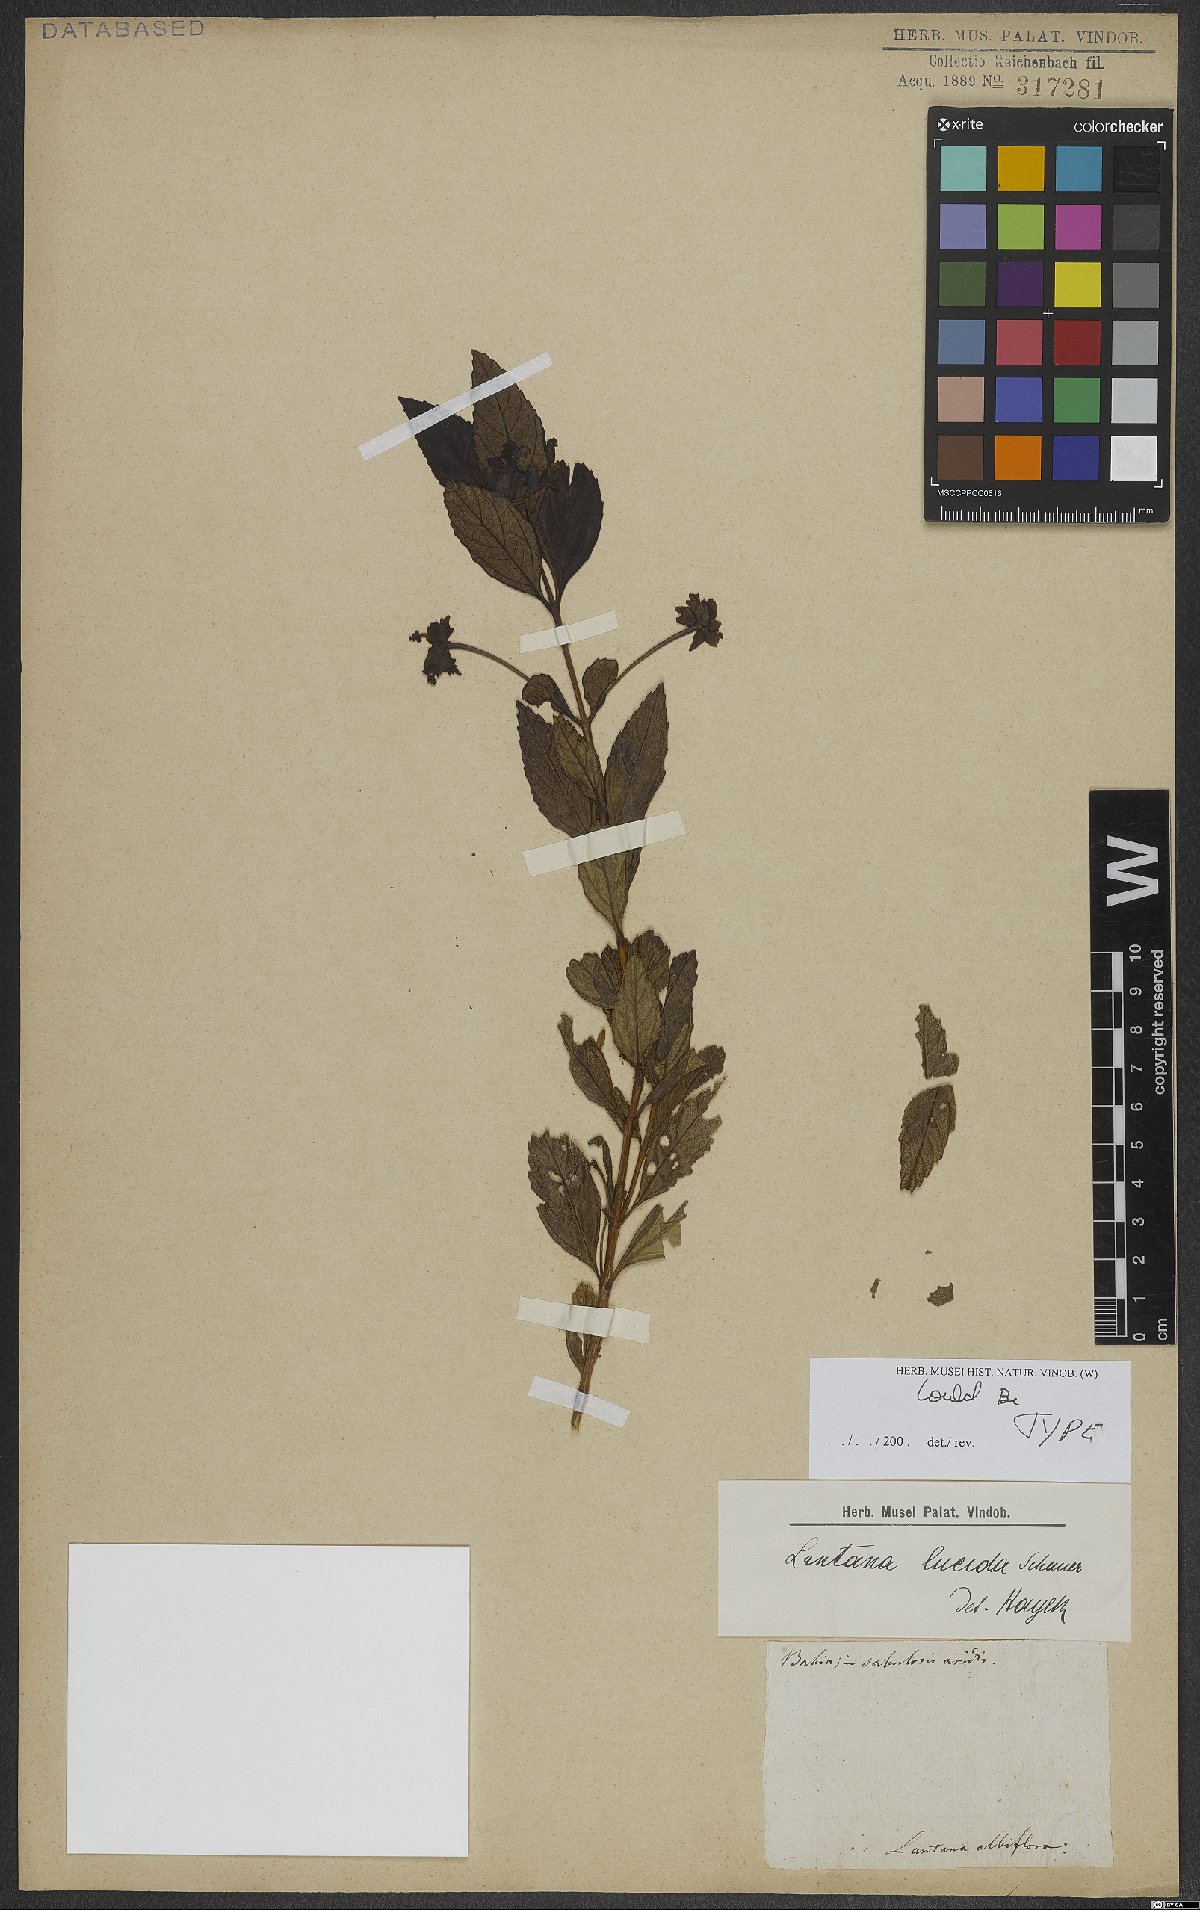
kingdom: Plantae
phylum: Tracheophyta
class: Magnoliopsida
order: Lamiales
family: Verbenaceae
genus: Lantana
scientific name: Lantana lucida
